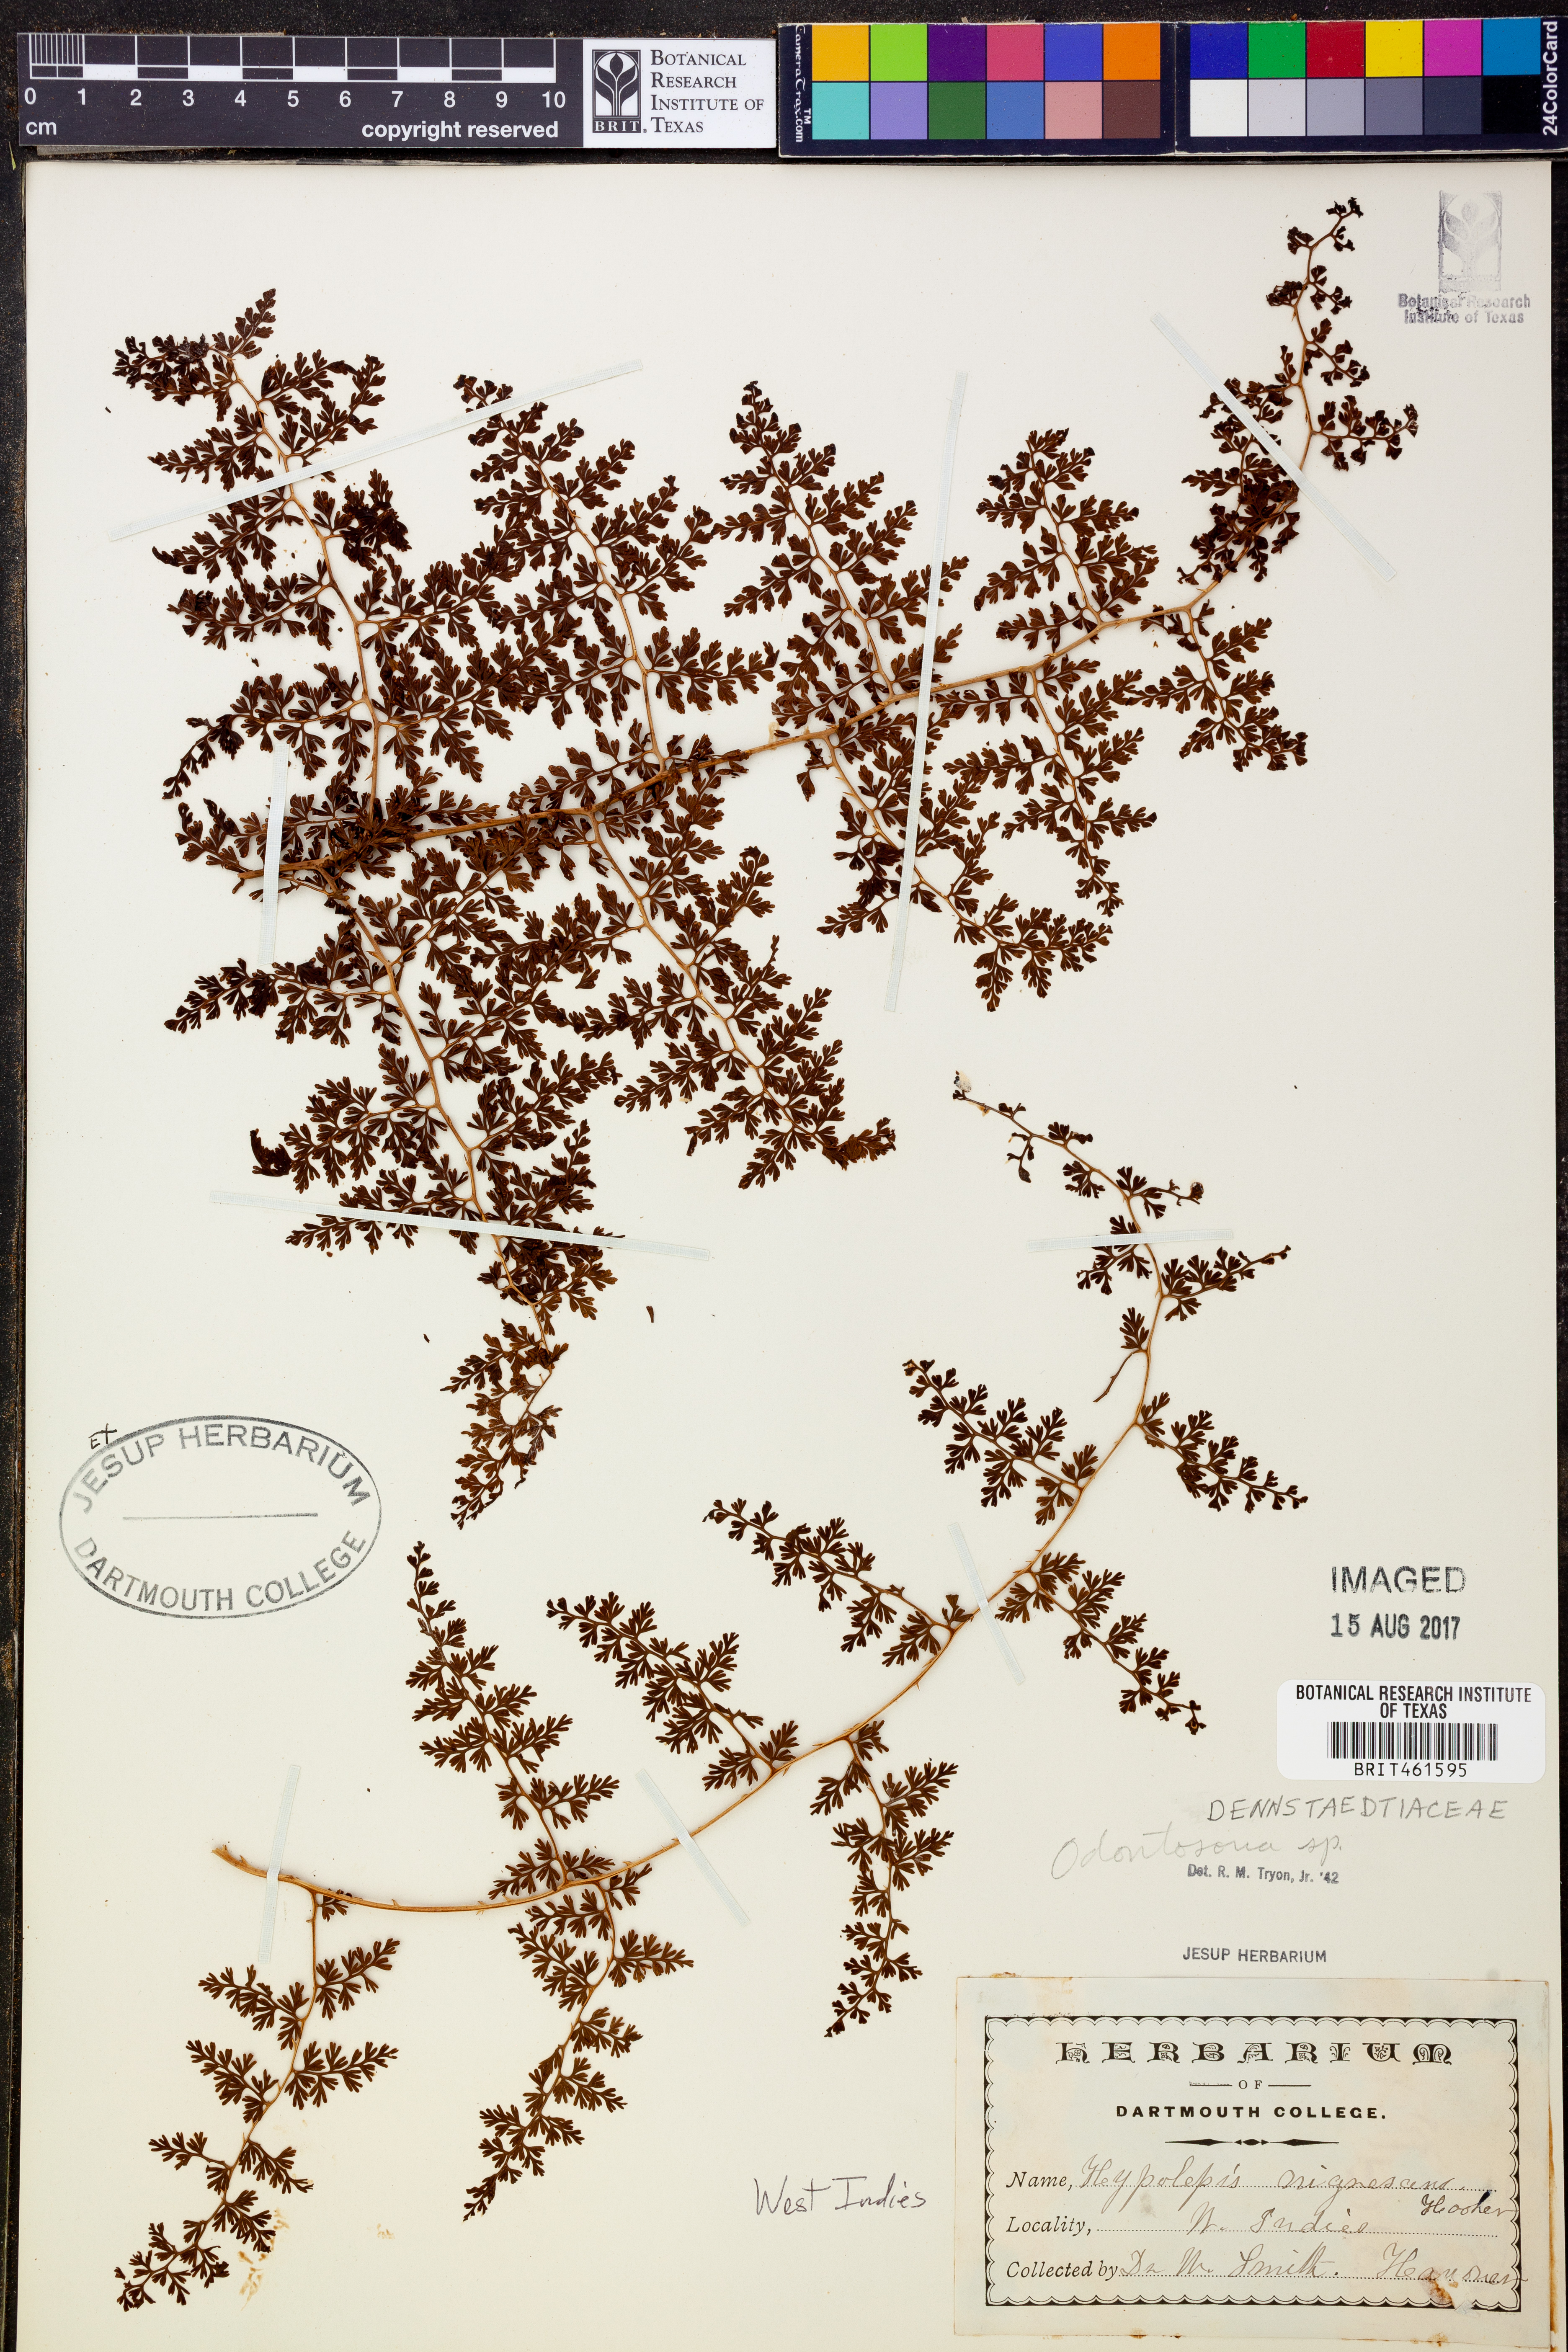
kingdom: Plantae
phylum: Tracheophyta
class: Polypodiopsida
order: Polypodiales
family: Lindsaeaceae
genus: Odontosoria
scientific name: Odontosoria
